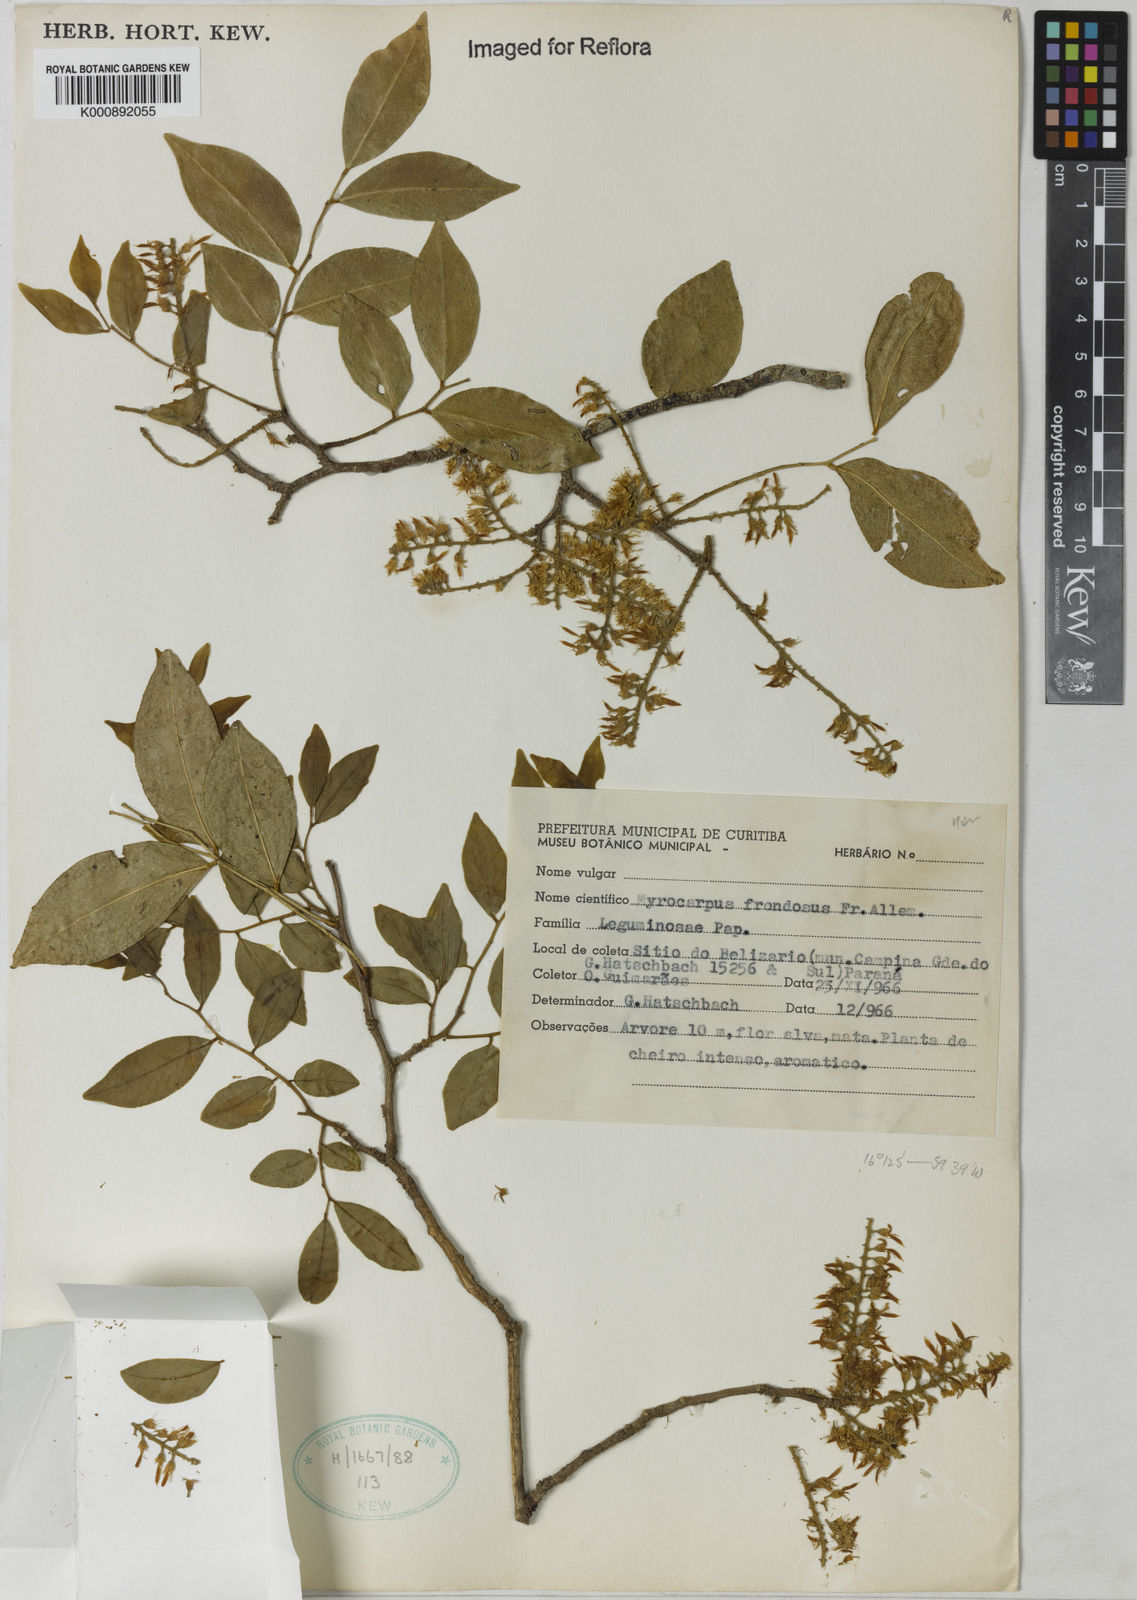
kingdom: Plantae
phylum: Tracheophyta
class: Magnoliopsida
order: Fabales
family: Fabaceae
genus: Myrocarpus
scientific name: Myrocarpus
